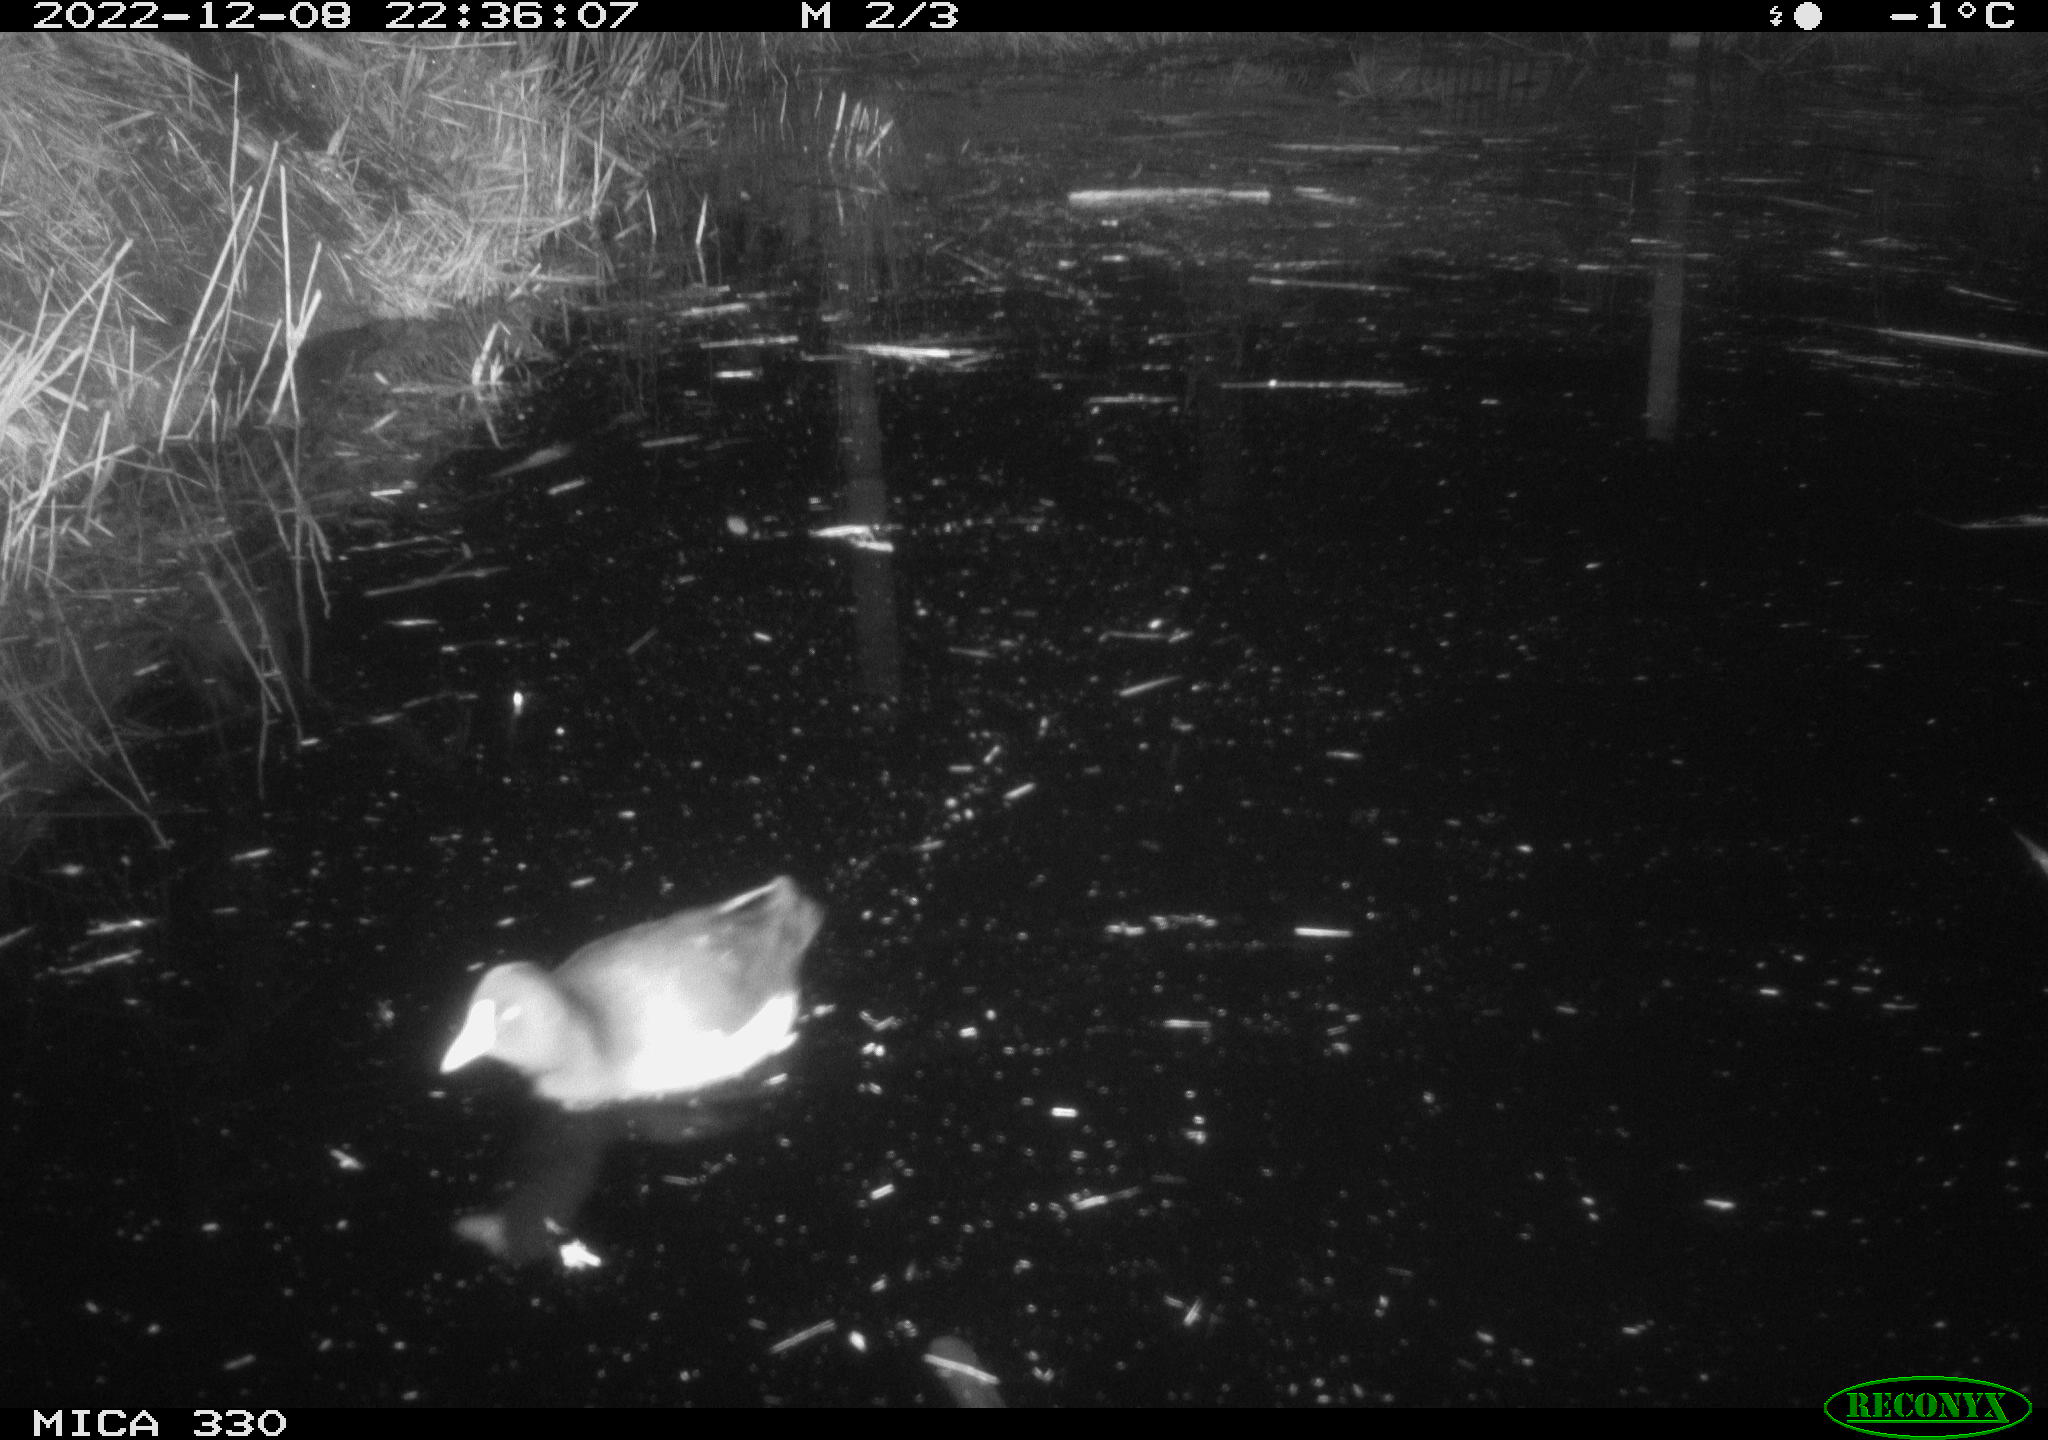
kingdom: Animalia
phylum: Chordata
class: Aves
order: Gruiformes
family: Rallidae
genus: Gallinula
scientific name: Gallinula chloropus
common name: Common moorhen
